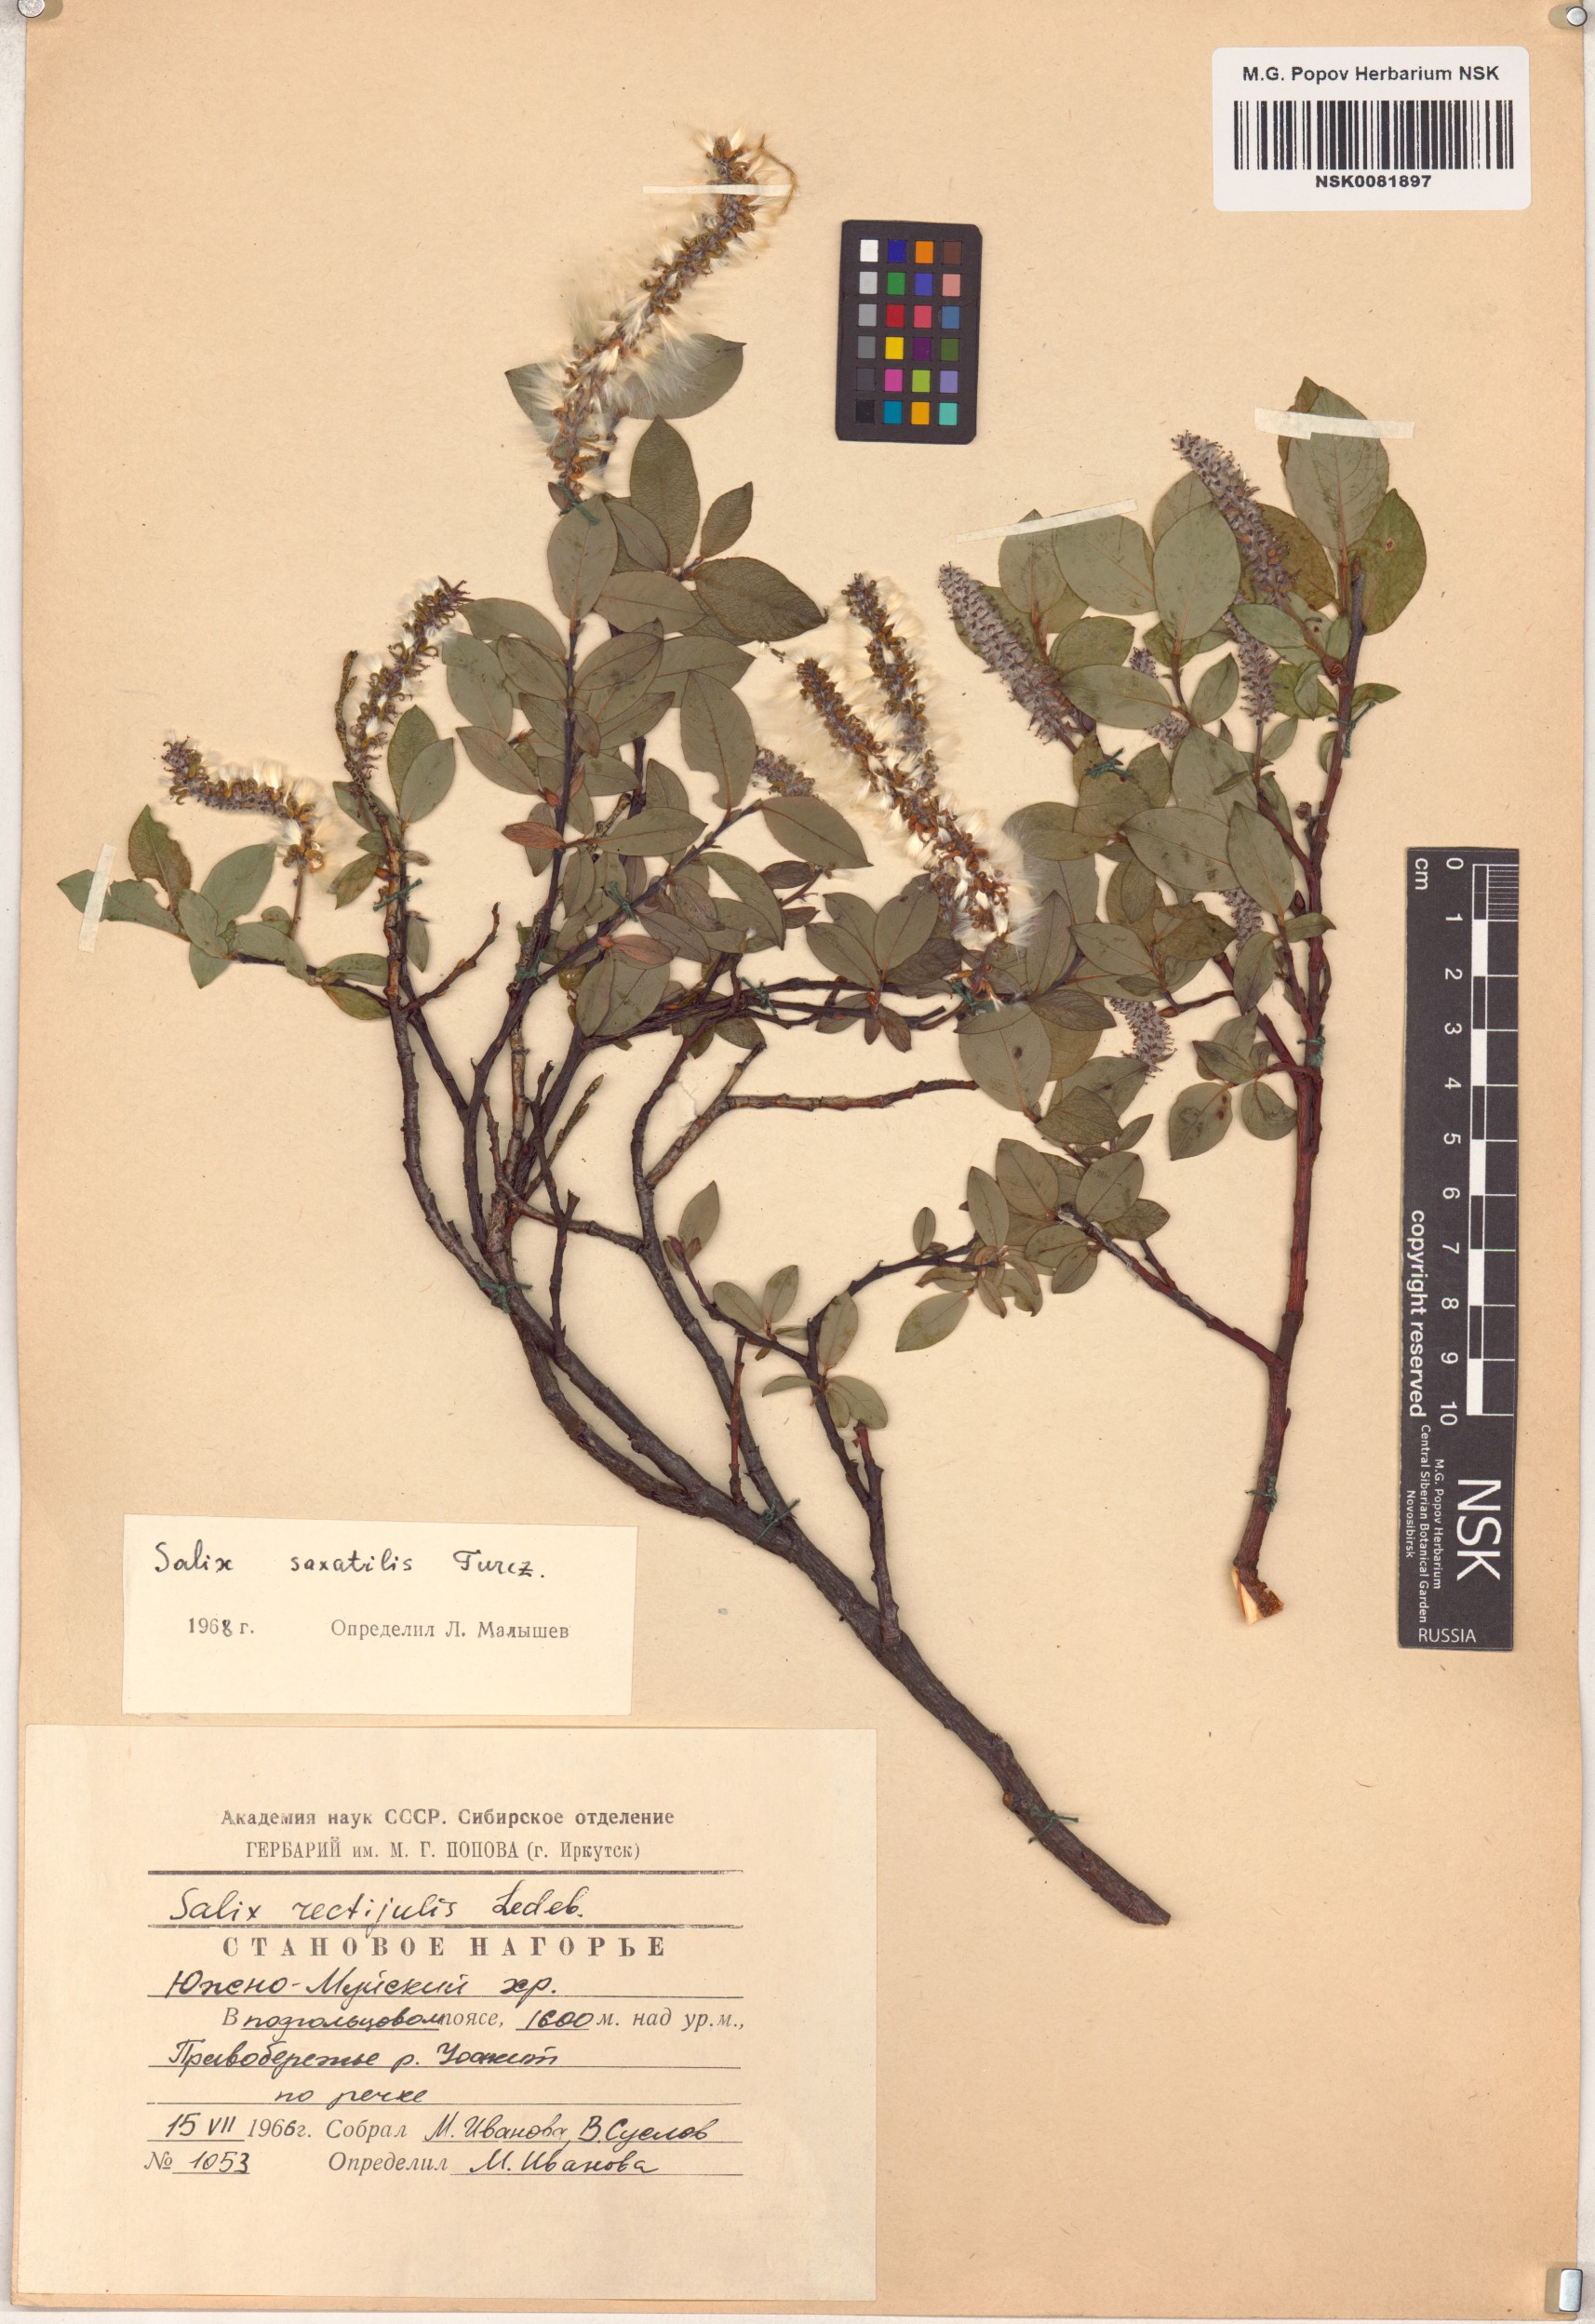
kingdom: Plantae
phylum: Tracheophyta
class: Magnoliopsida
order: Malpighiales
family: Salicaceae
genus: Salix
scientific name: Salix saxatilis
